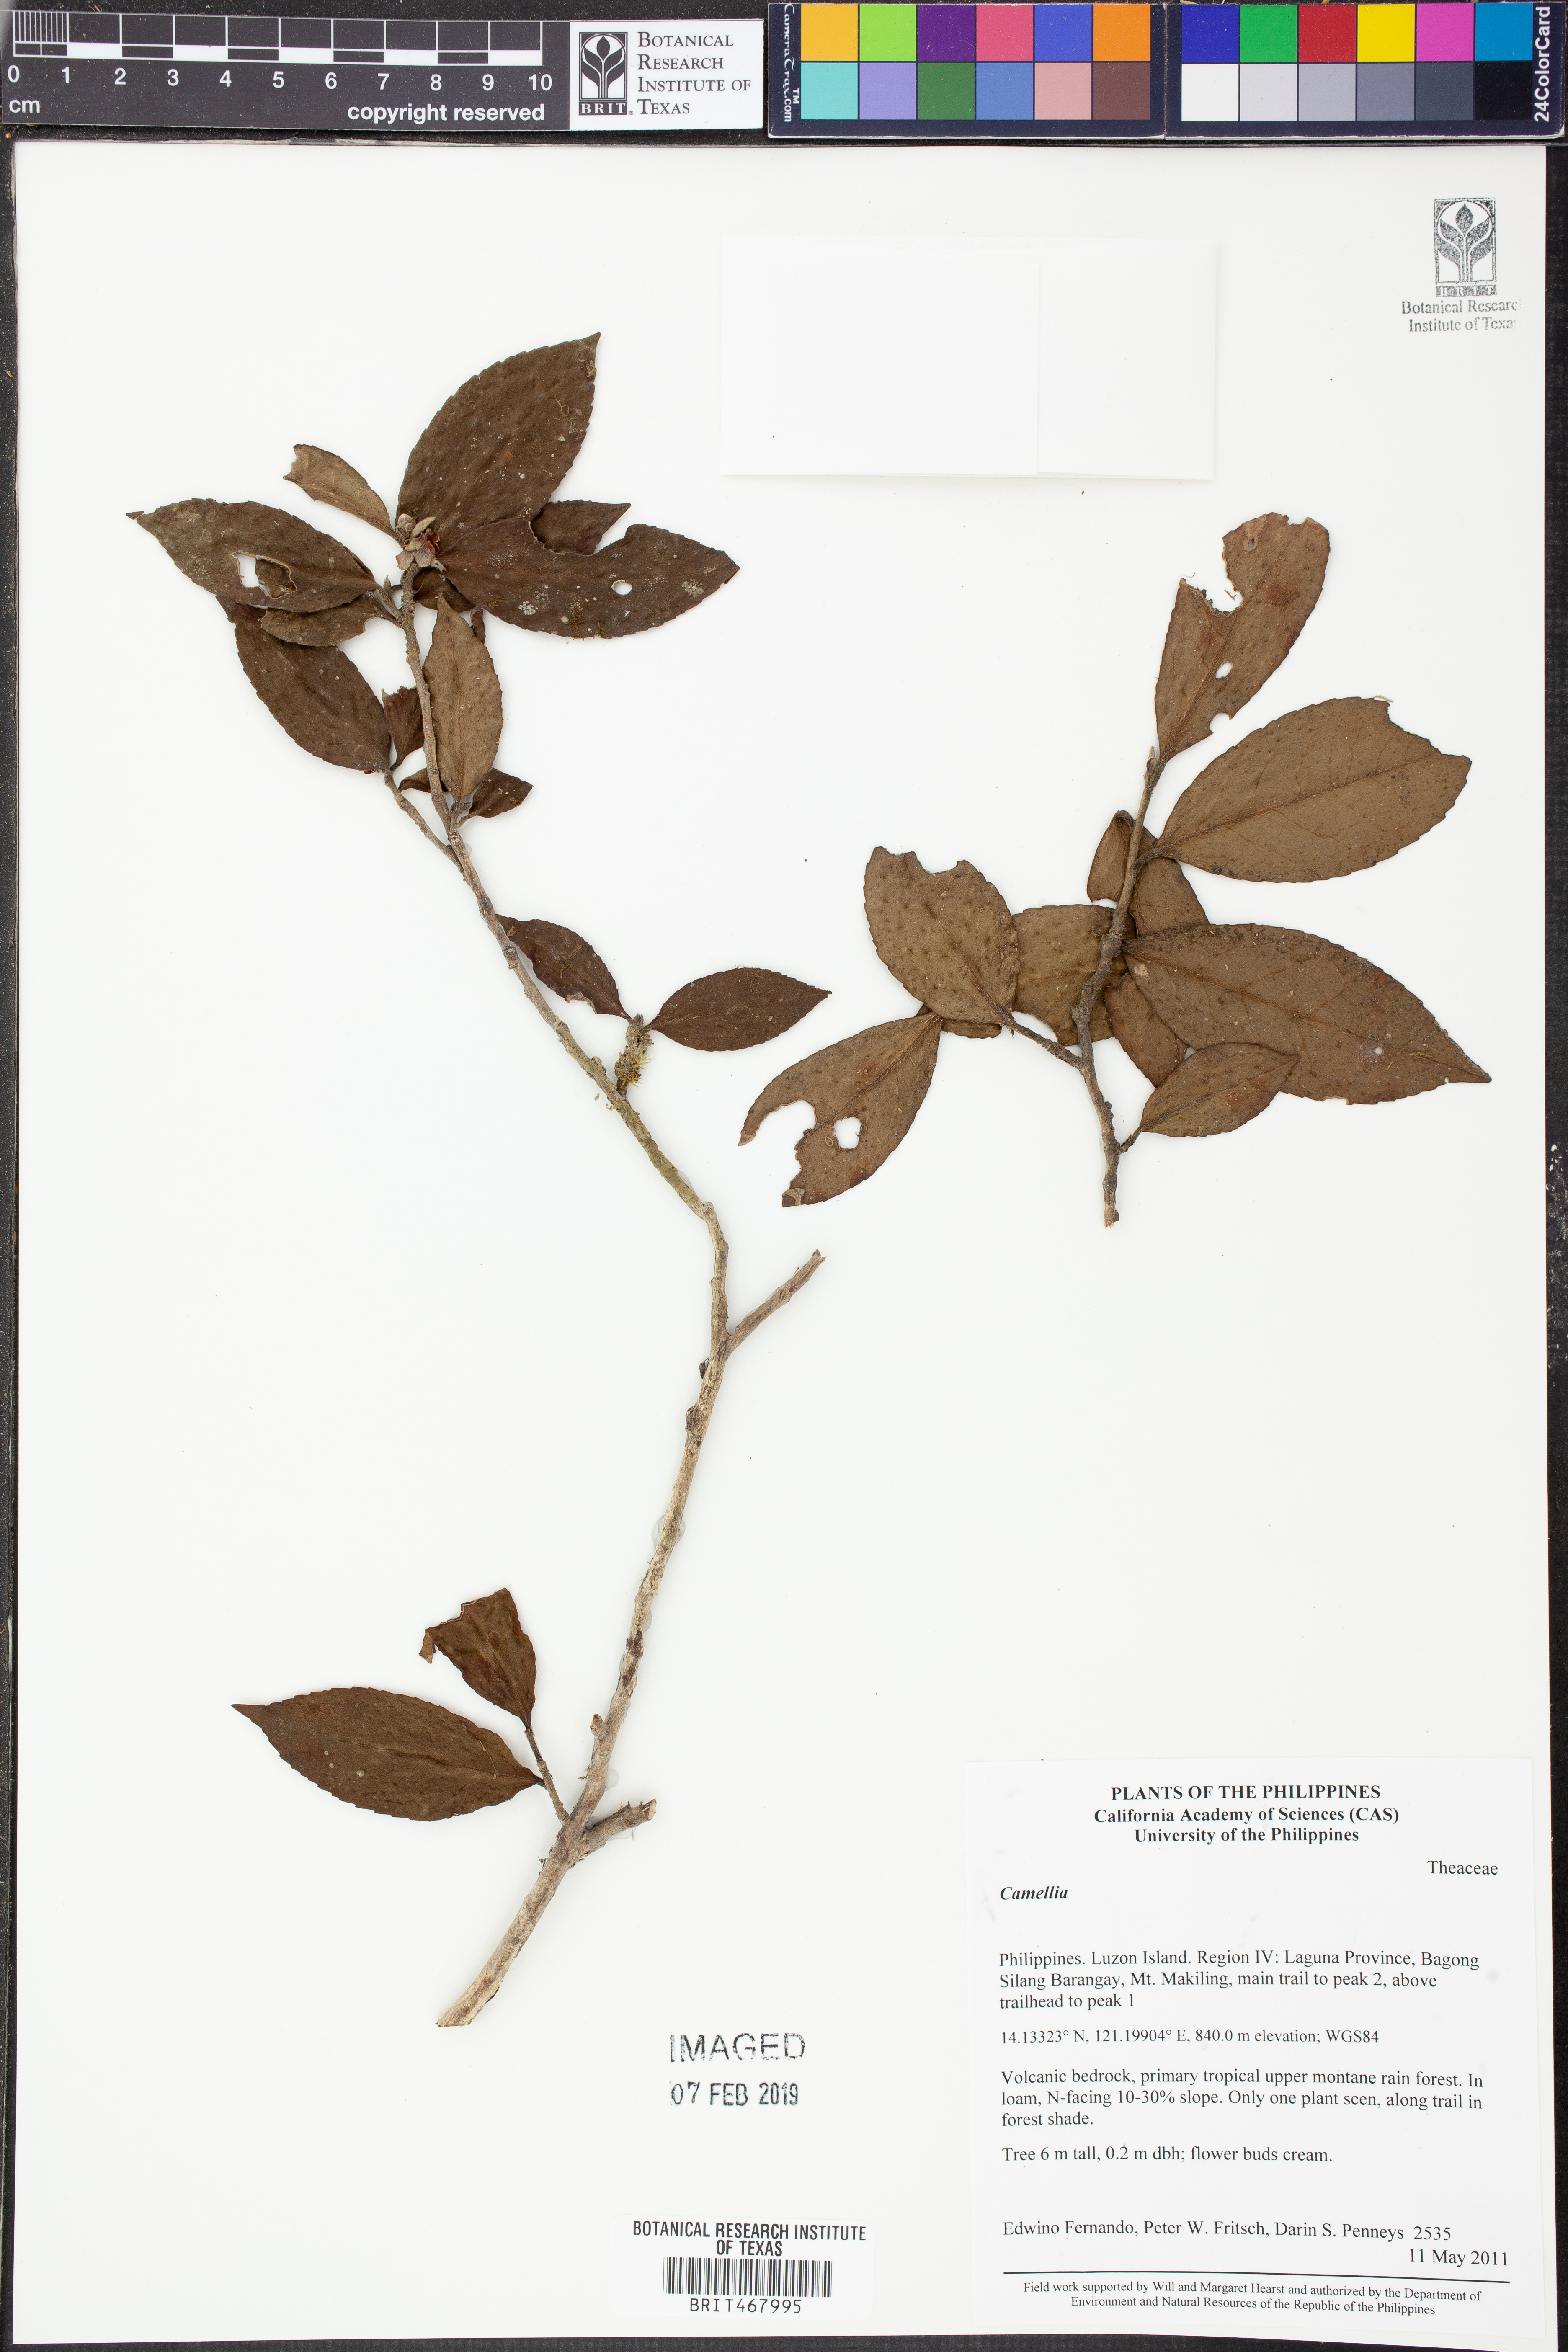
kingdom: Plantae
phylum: Tracheophyta
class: Magnoliopsida
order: Ericales
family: Theaceae
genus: Camellia
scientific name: Camellia
